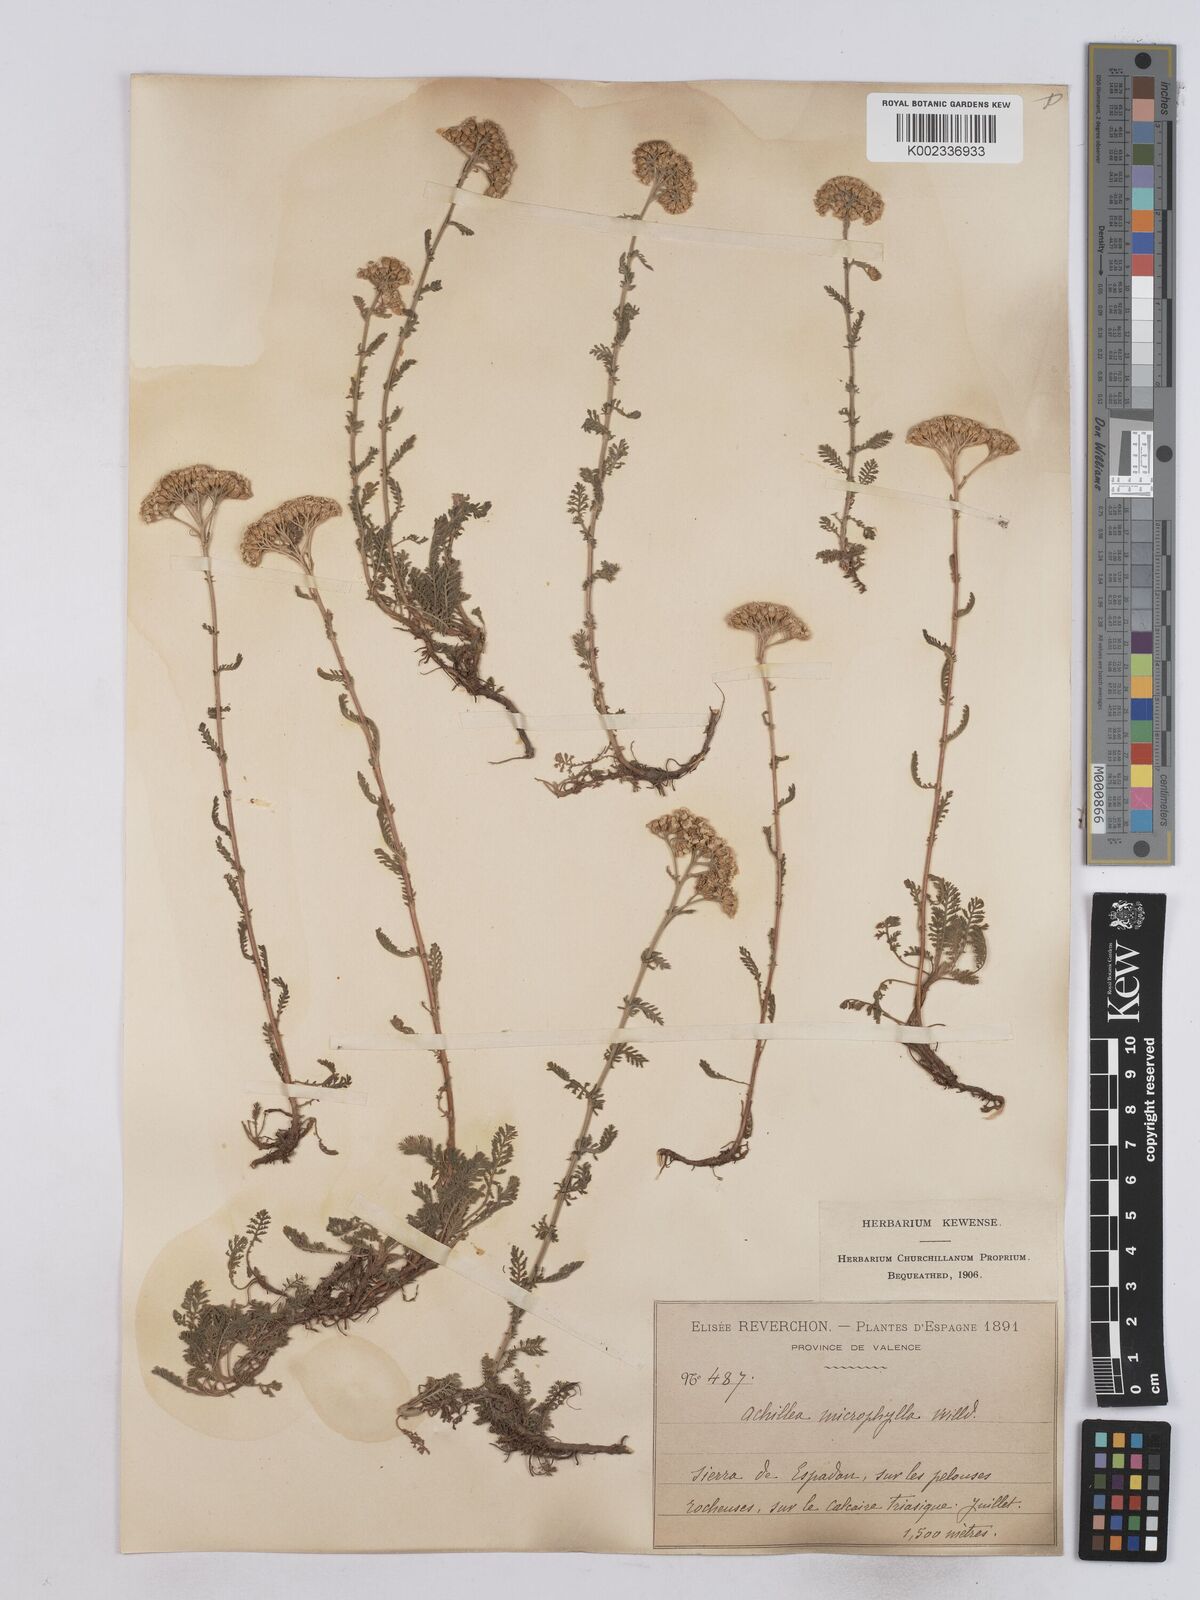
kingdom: Plantae
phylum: Tracheophyta
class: Magnoliopsida
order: Asterales
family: Asteraceae
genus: Achillea
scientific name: Achillea odorata
